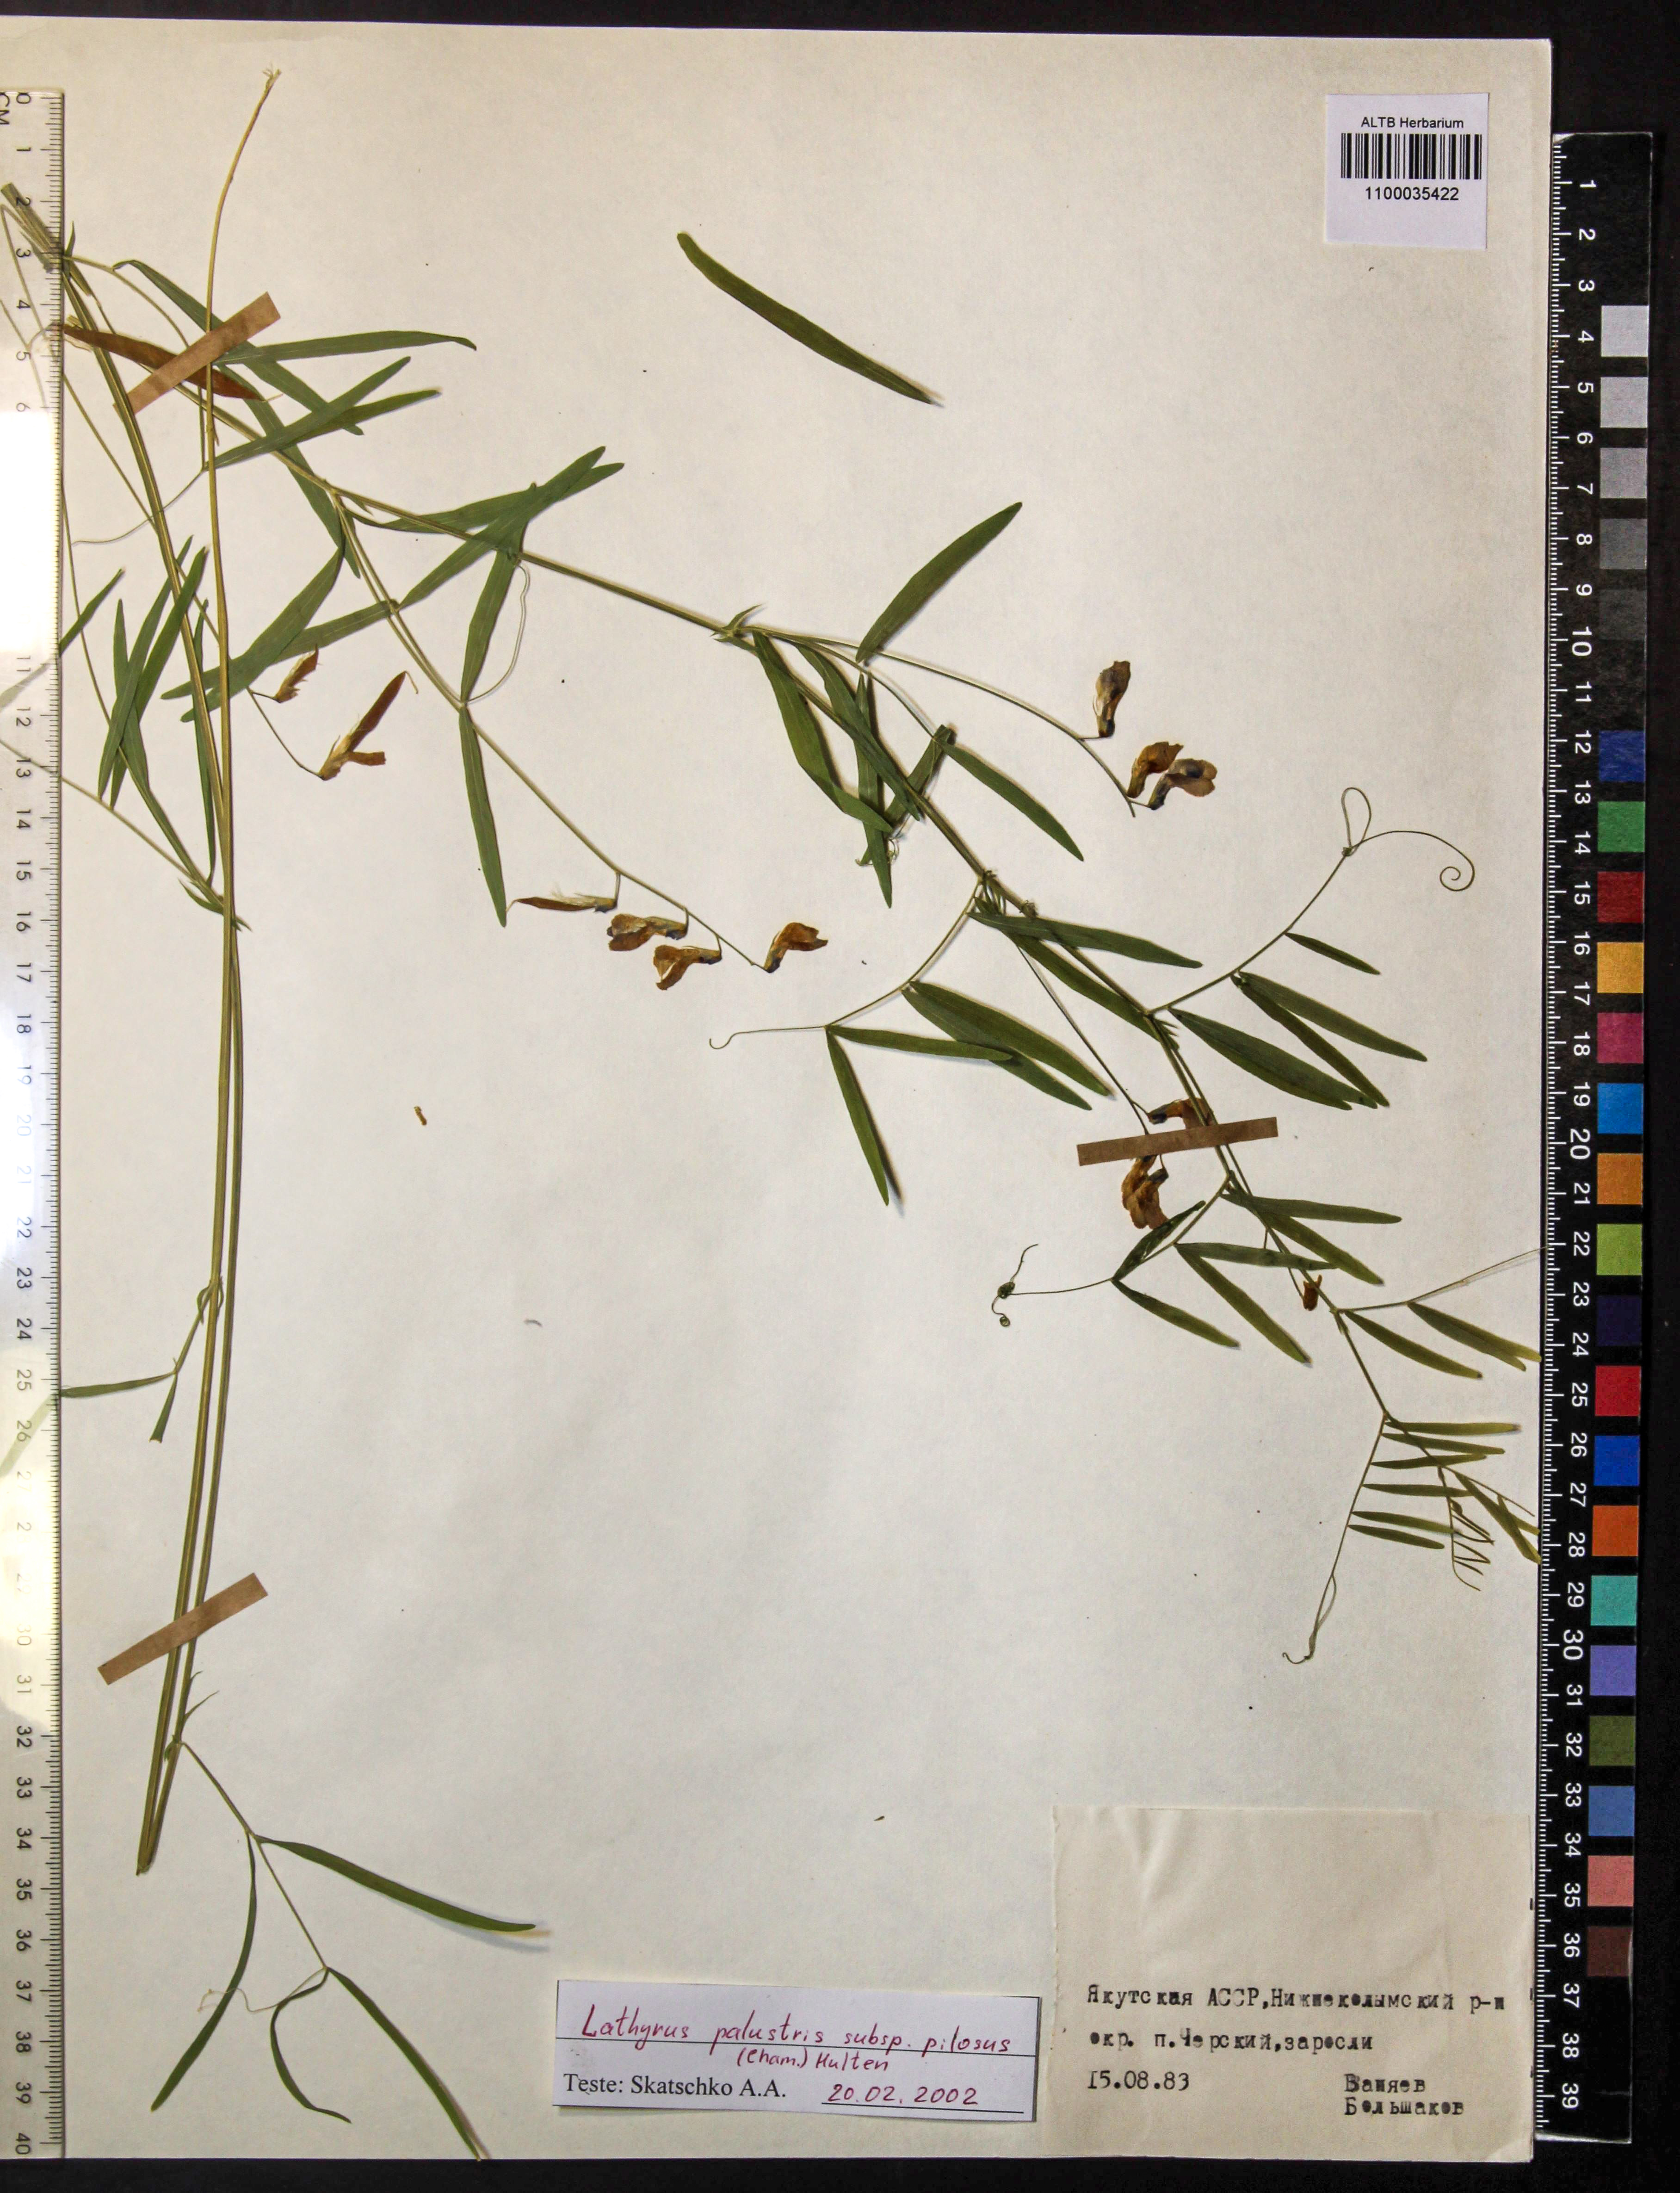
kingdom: Plantae
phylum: Tracheophyta
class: Magnoliopsida
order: Fabales
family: Fabaceae
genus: Lathyrus
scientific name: Lathyrus palustris
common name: Marsh pea
